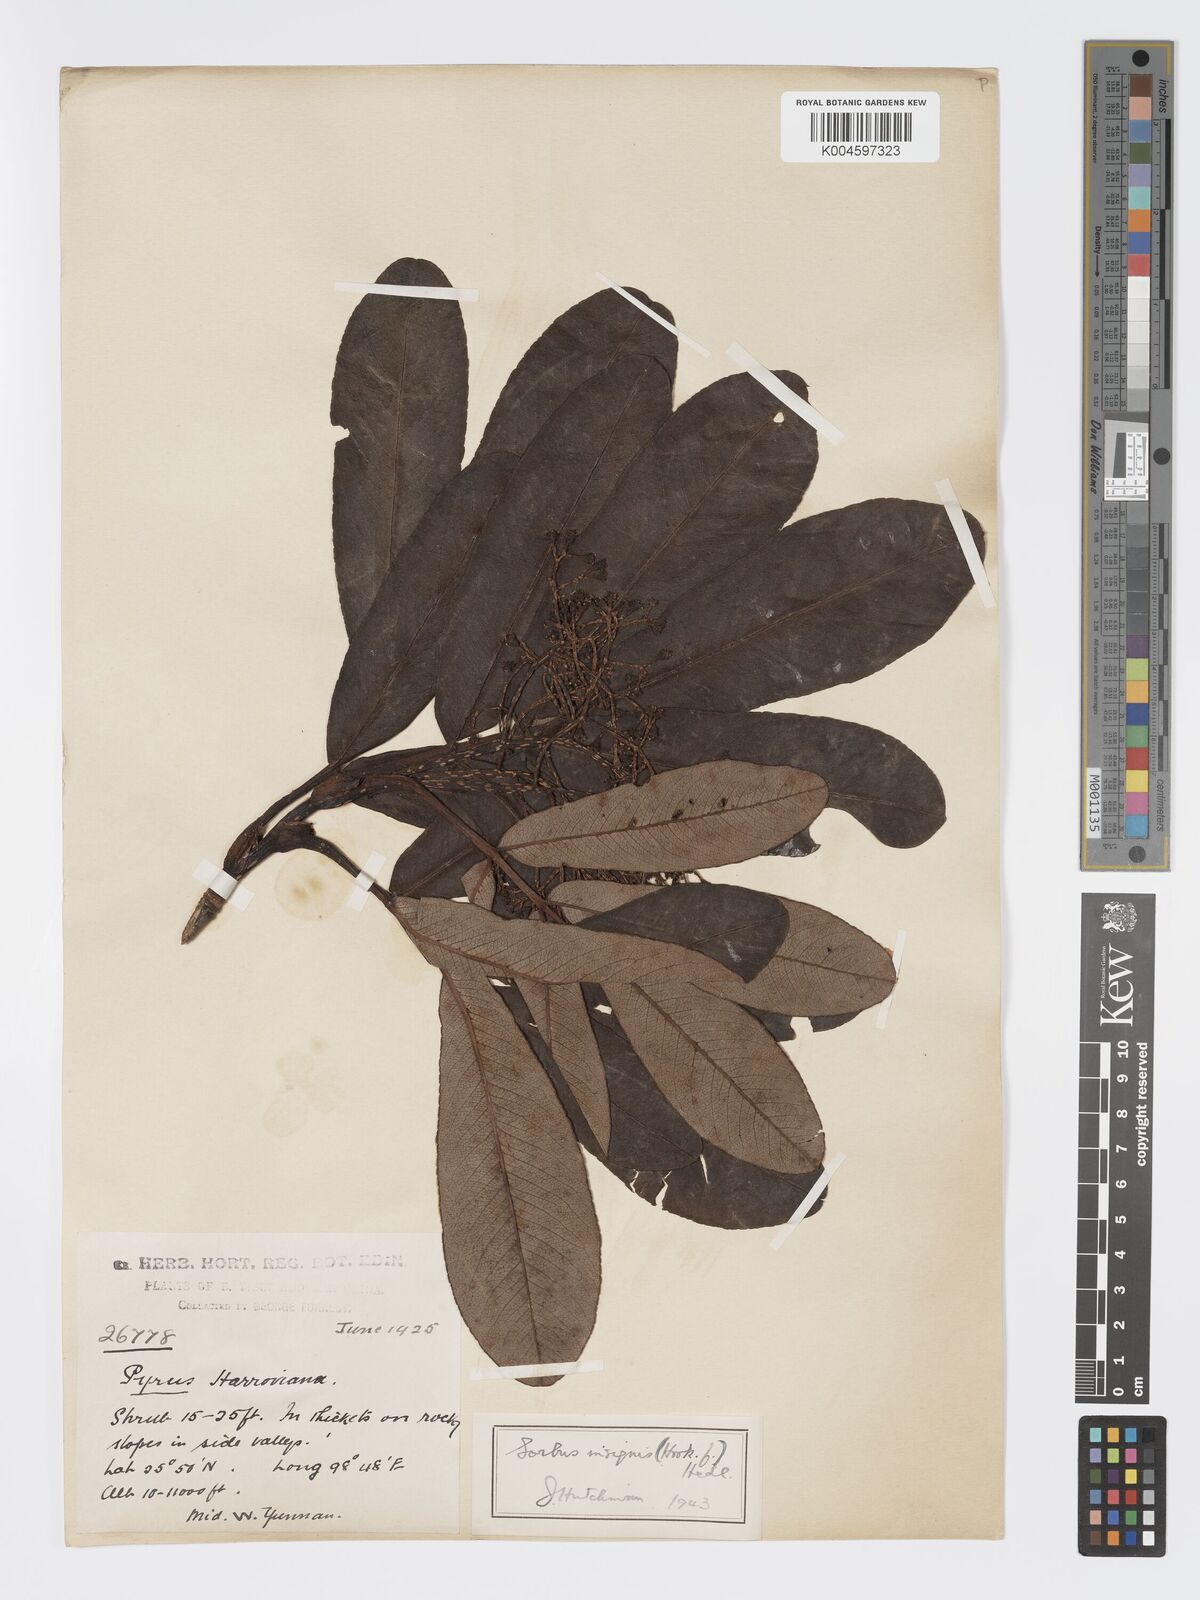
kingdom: Plantae
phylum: Tracheophyta
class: Magnoliopsida
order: Rosales
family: Rosaceae
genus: Sorbus
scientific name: Sorbus
